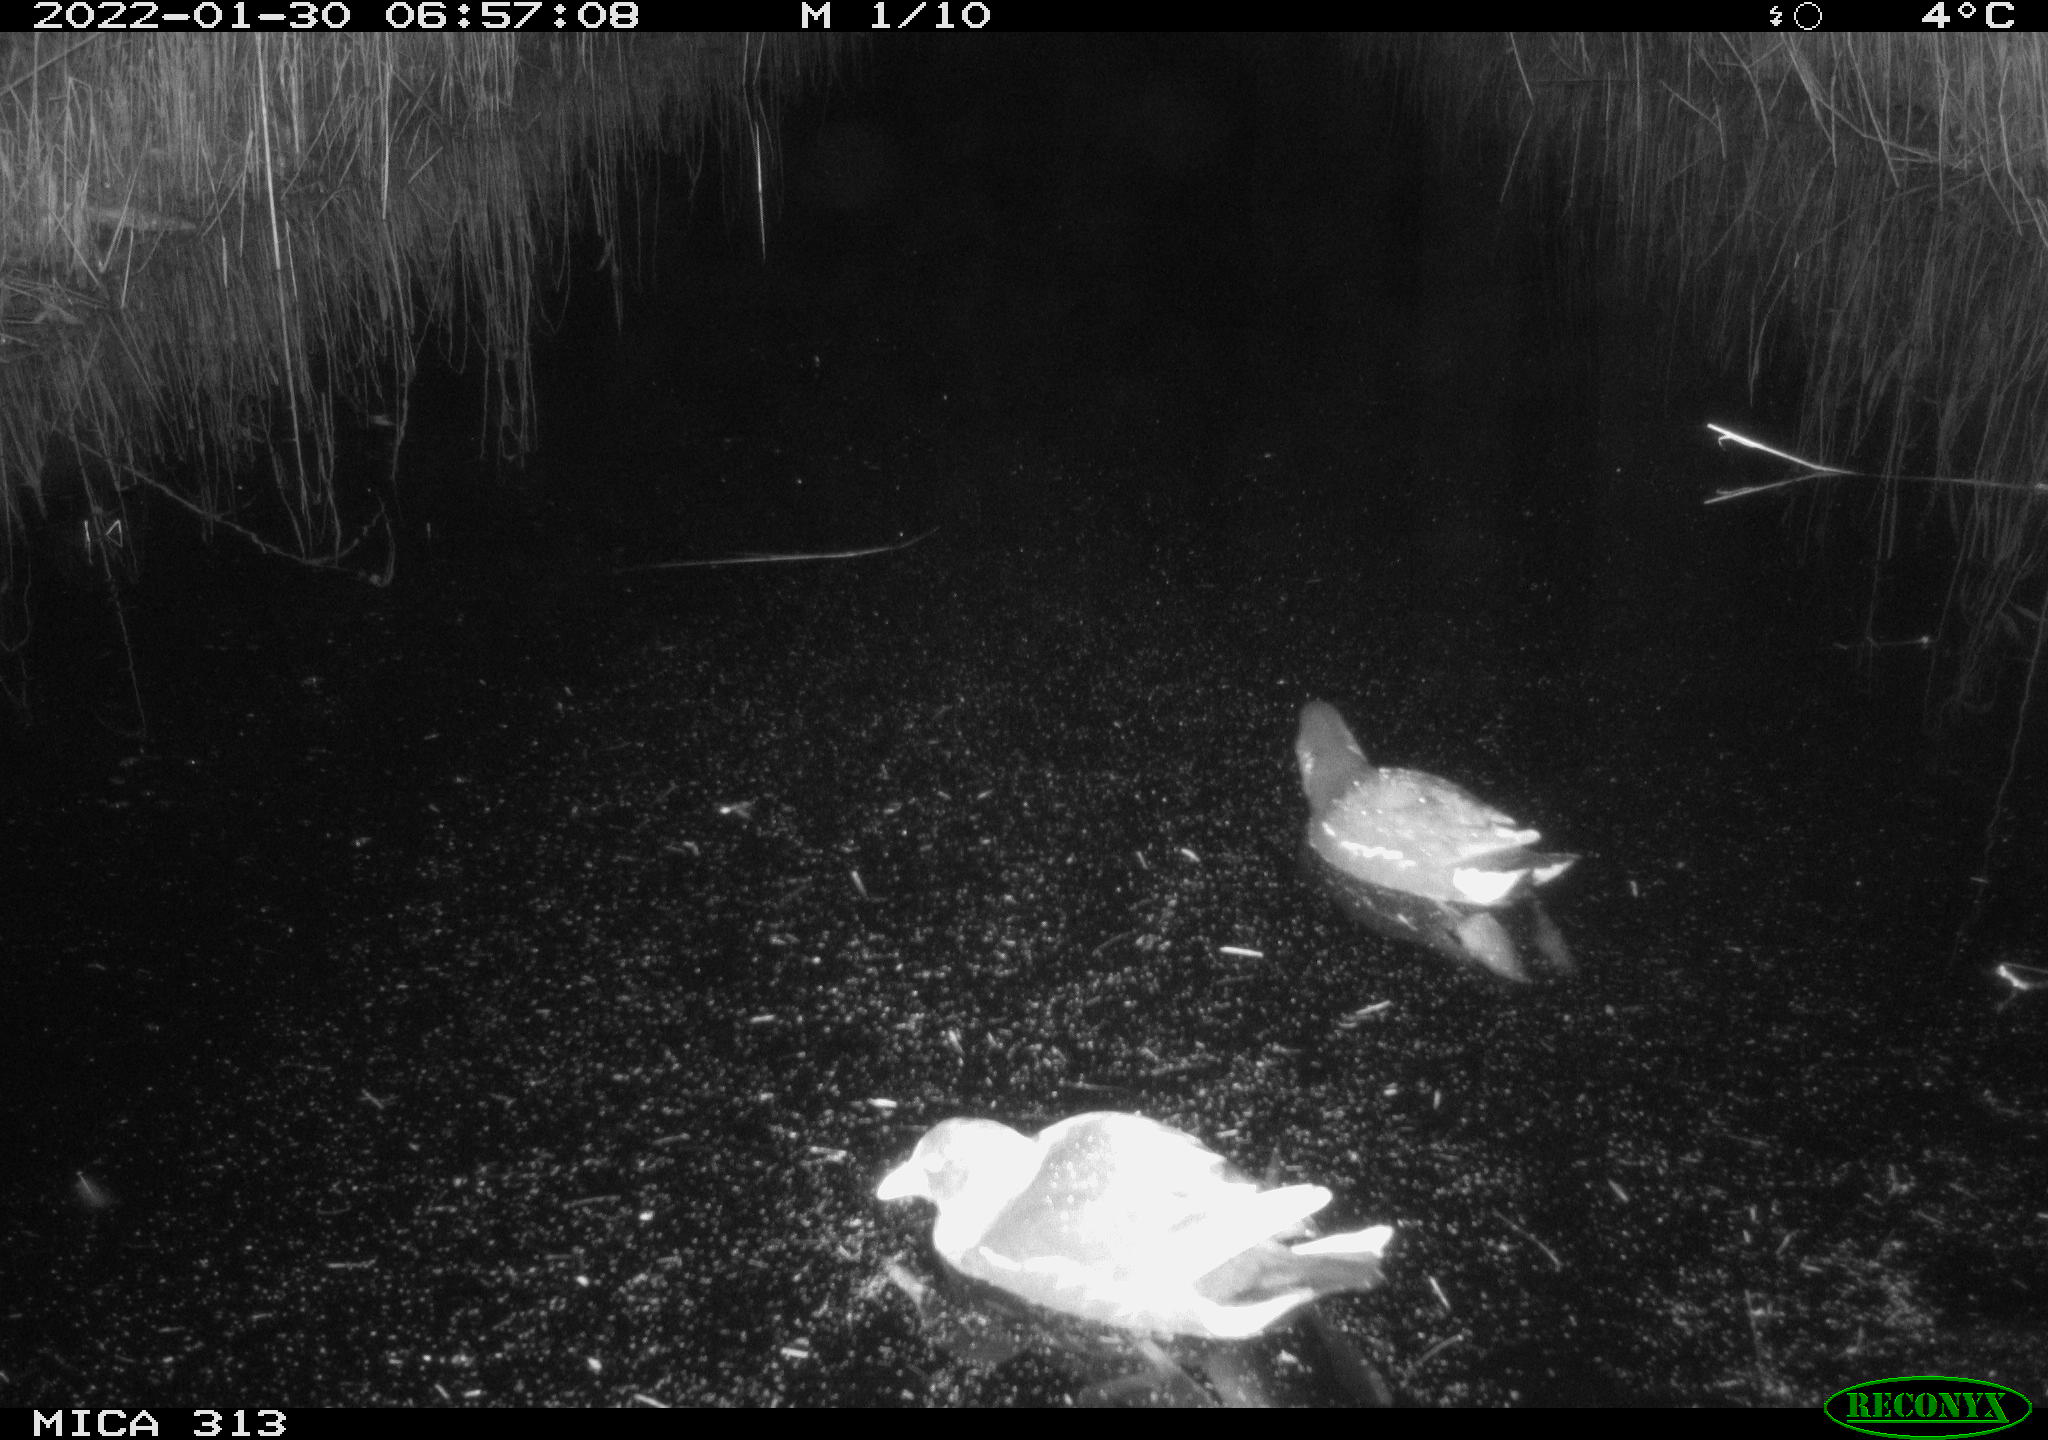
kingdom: Animalia
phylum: Chordata
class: Aves
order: Anseriformes
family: Anatidae
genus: Anas
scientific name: Anas
